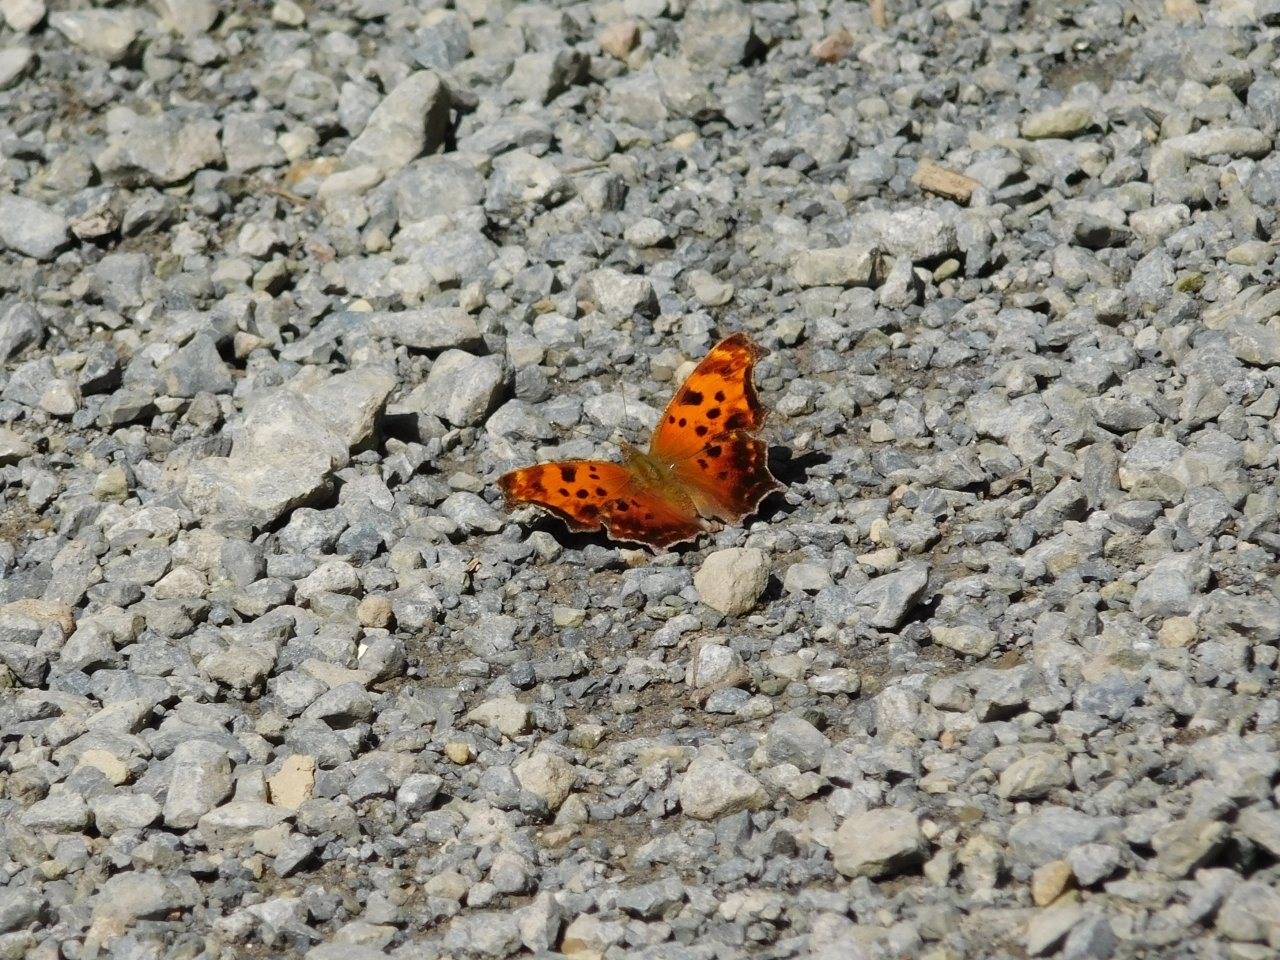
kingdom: Animalia
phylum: Arthropoda
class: Insecta
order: Lepidoptera
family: Nymphalidae
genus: Polygonia
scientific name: Polygonia comma
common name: Eastern Comma
